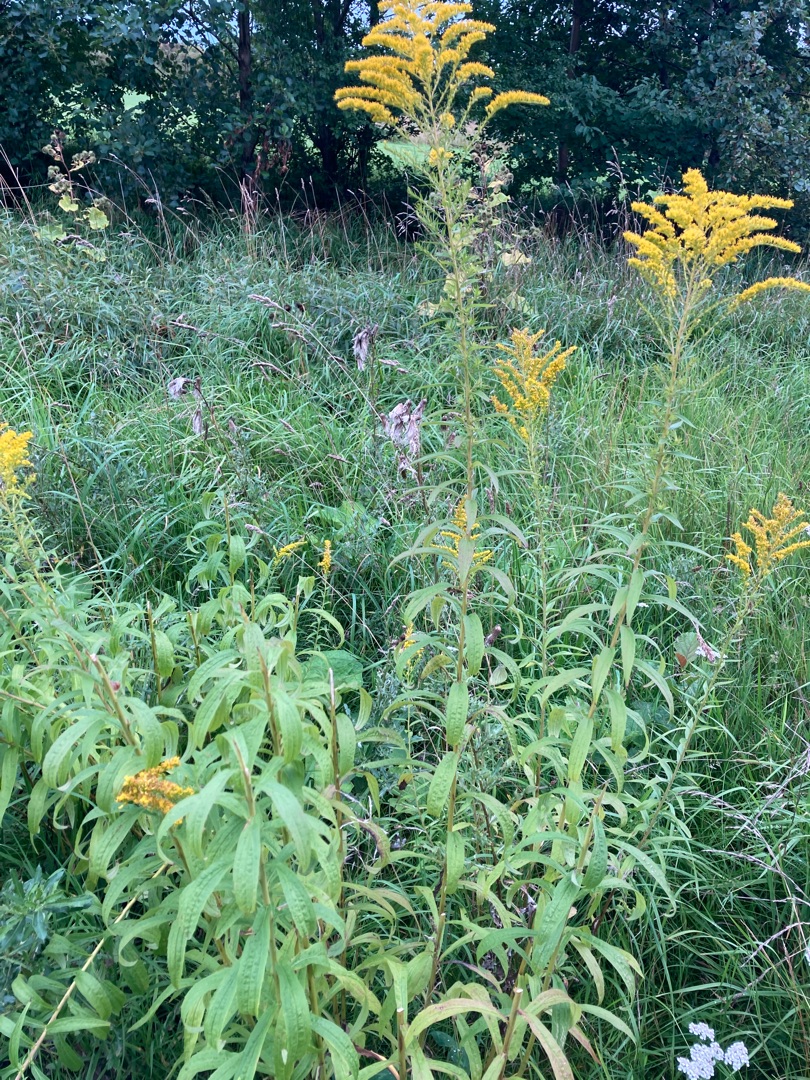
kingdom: Plantae
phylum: Tracheophyta
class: Magnoliopsida
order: Asterales
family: Asteraceae
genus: Solidago
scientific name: Solidago canadensis
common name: Kanadisk gyldenris
